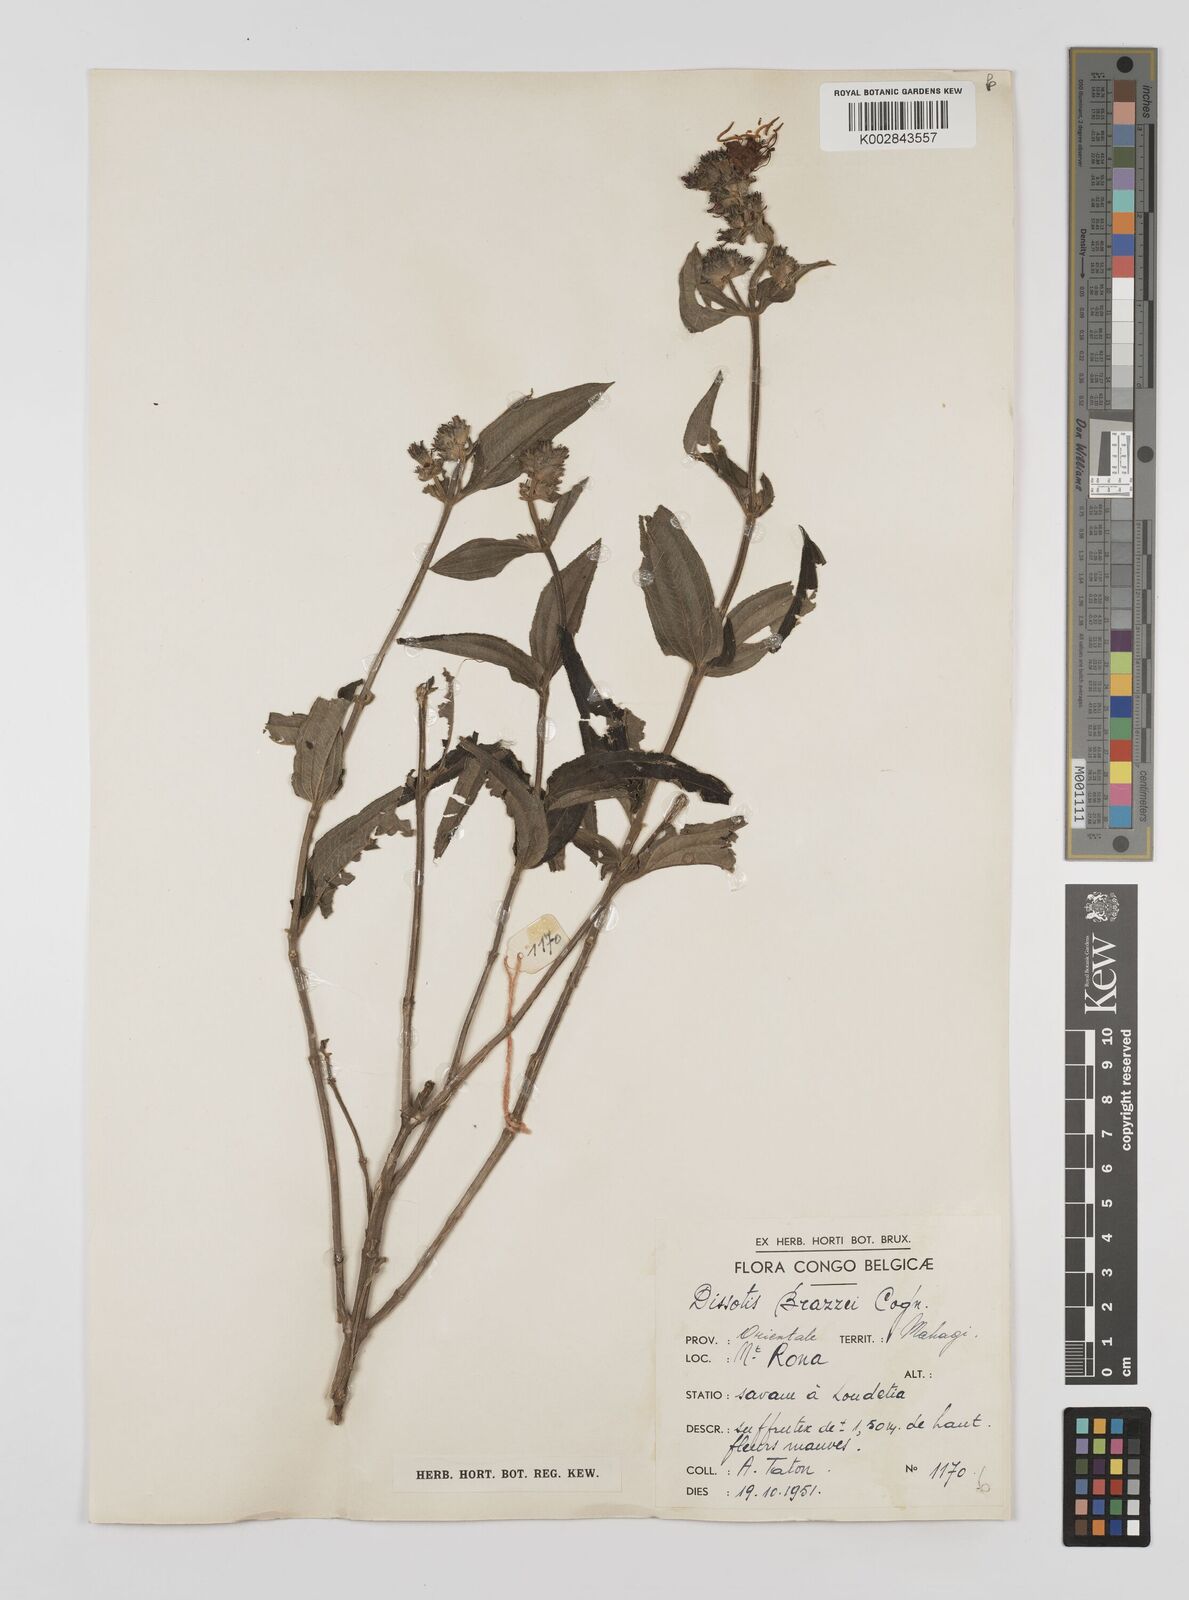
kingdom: Plantae
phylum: Tracheophyta
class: Magnoliopsida
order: Myrtales
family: Melastomataceae
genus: Dupineta
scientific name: Dupineta brazzae
